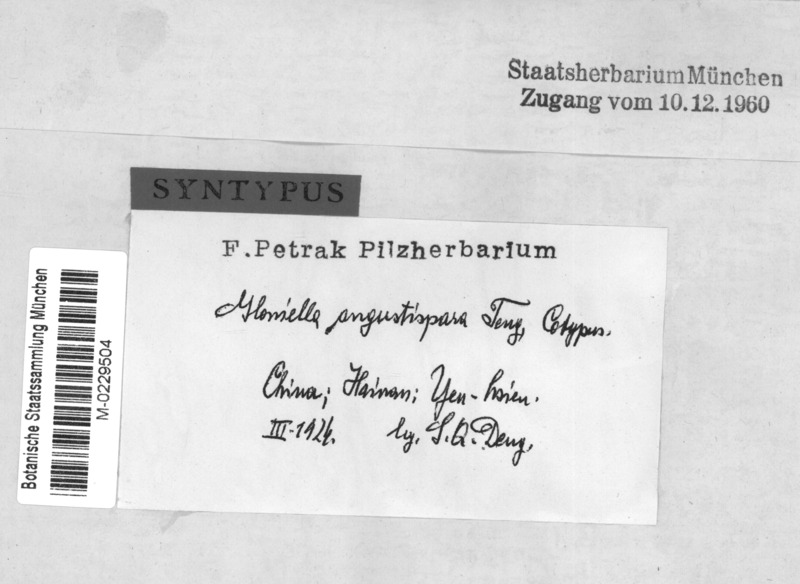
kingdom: Fungi
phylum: Ascomycota
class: Dothideomycetes
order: Hysteriales
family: Hysteriaceae
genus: Gloniella
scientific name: Gloniella angustispora
